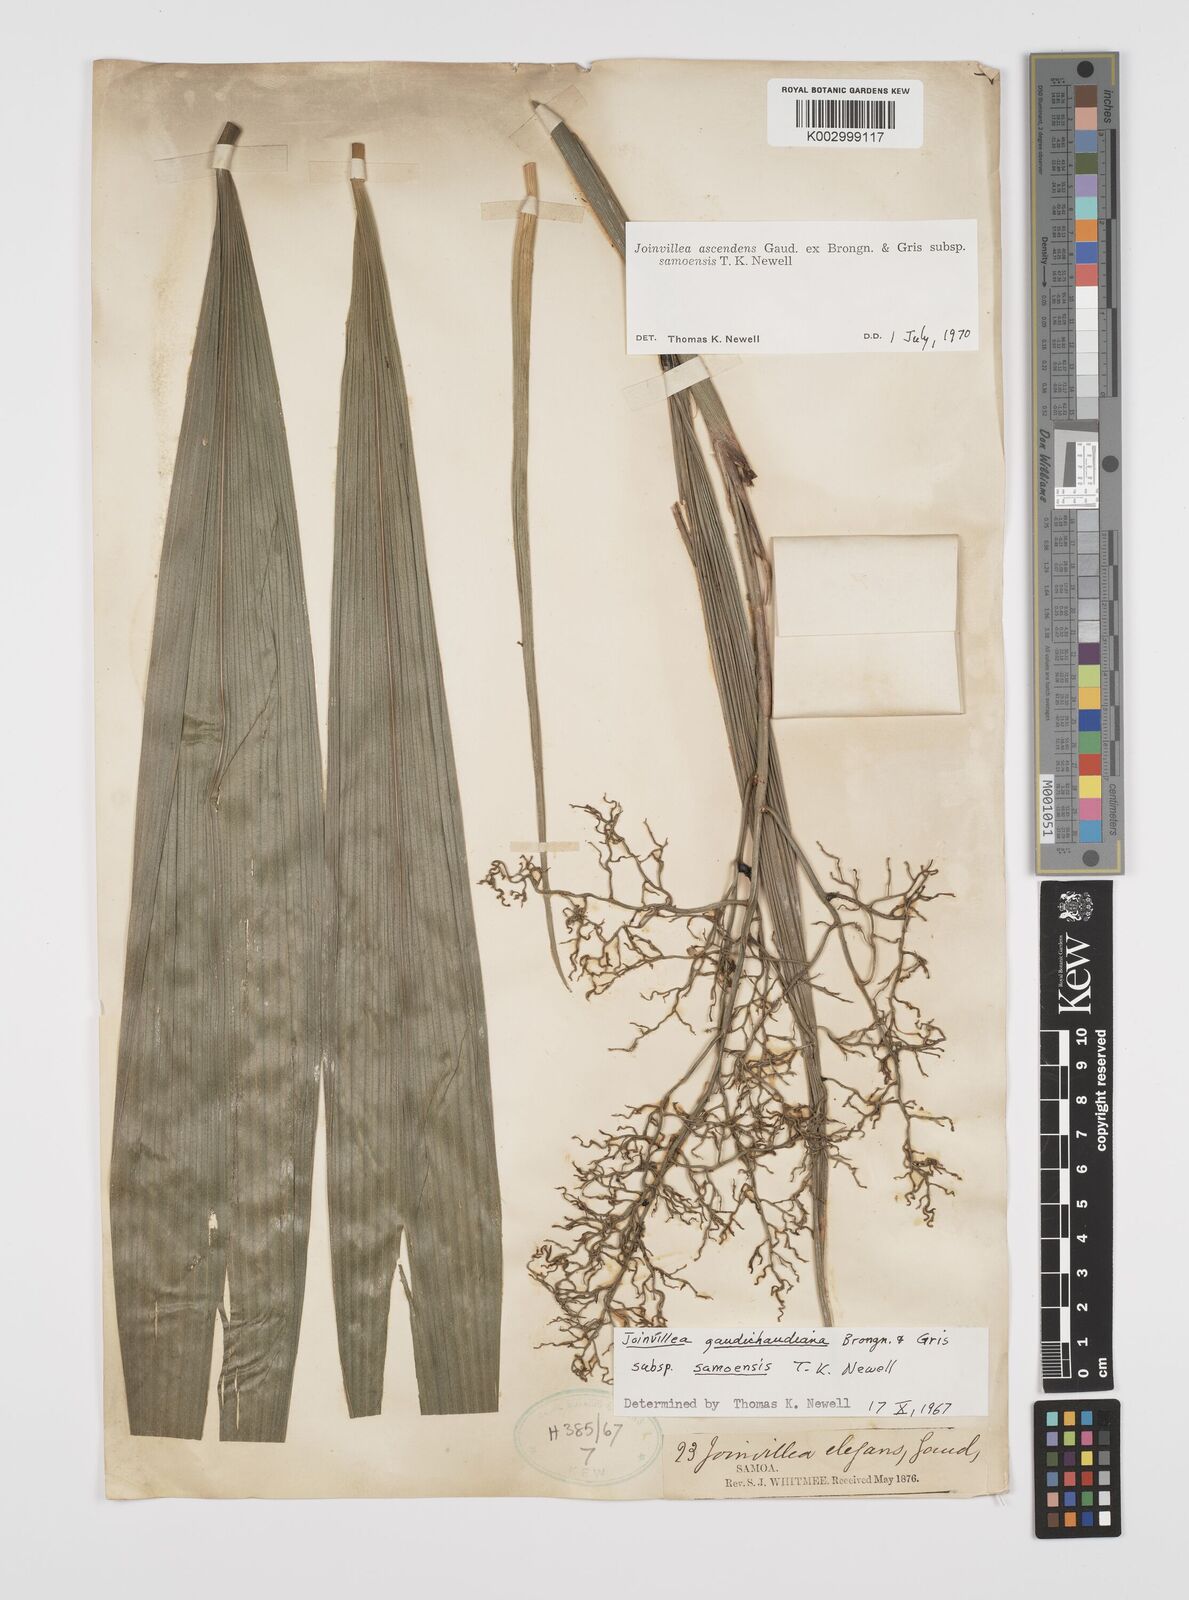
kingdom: Plantae
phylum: Tracheophyta
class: Liliopsida
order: Poales
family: Joinvilleaceae
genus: Joinvillea
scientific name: Joinvillea ascendens
